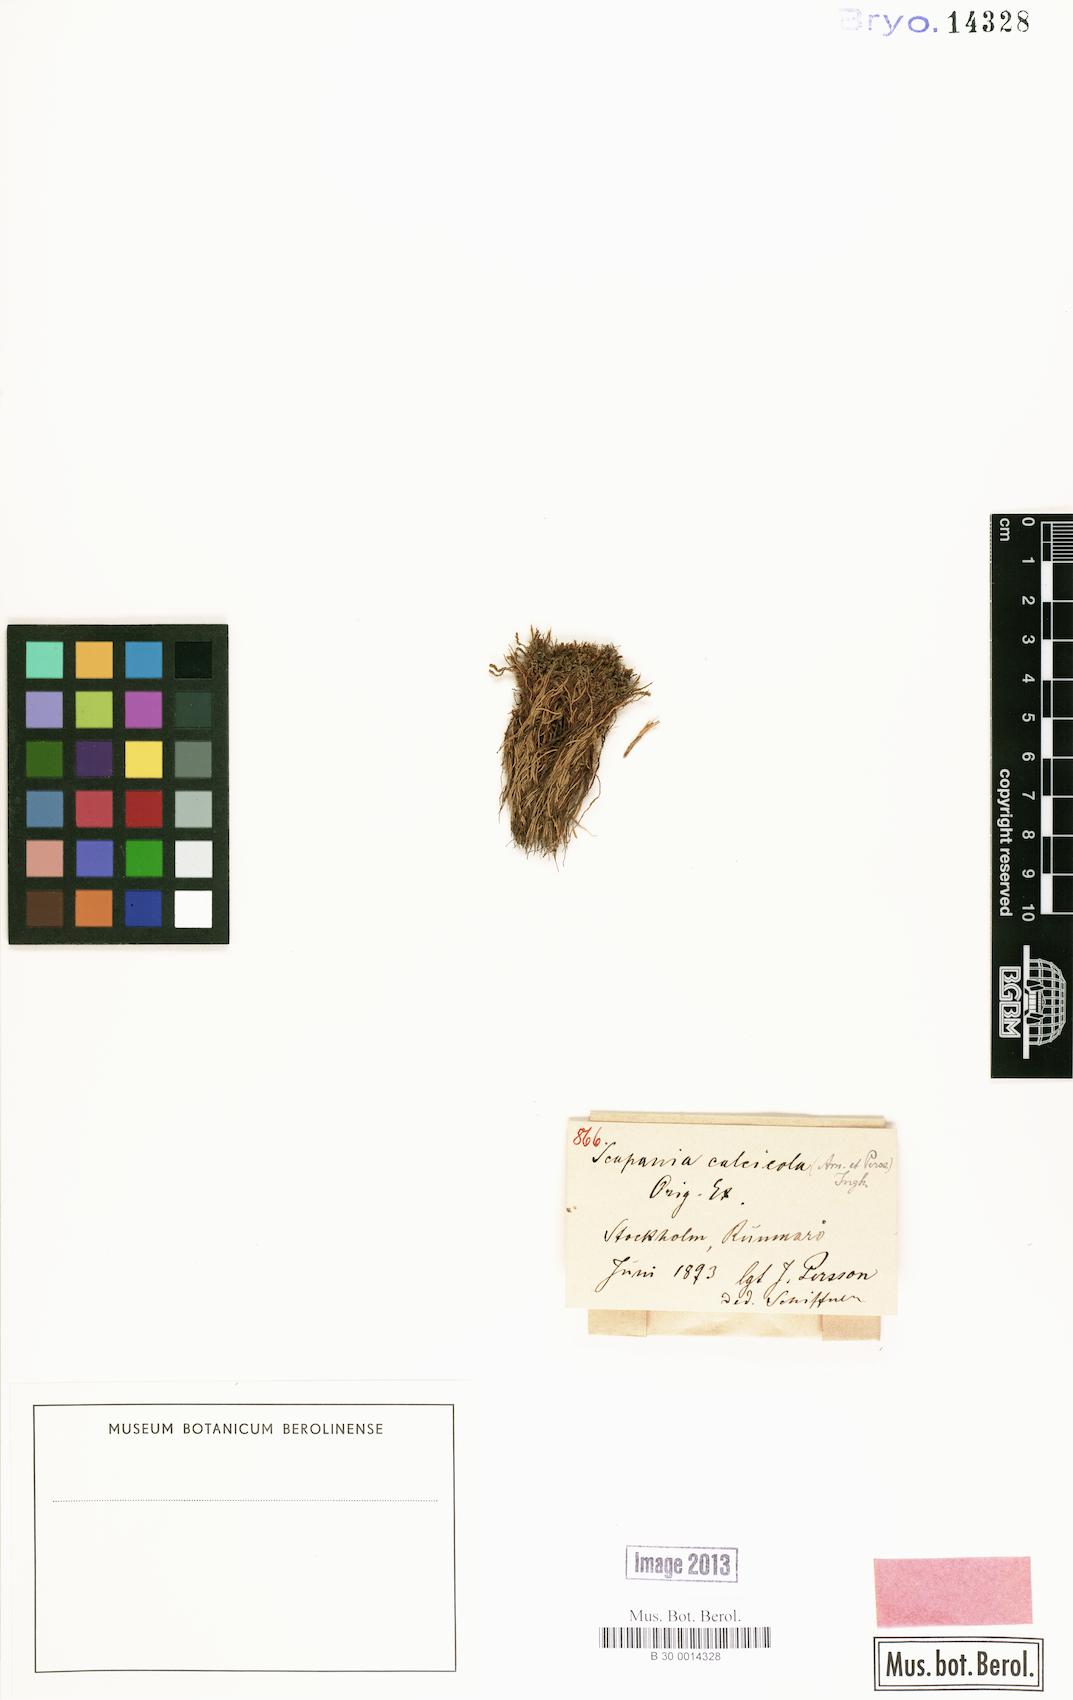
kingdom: Plantae
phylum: Marchantiophyta
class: Jungermanniopsida
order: Jungermanniales
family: Scapaniaceae
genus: Scapania
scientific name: Scapania calcicola
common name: Calcicolous earwort
